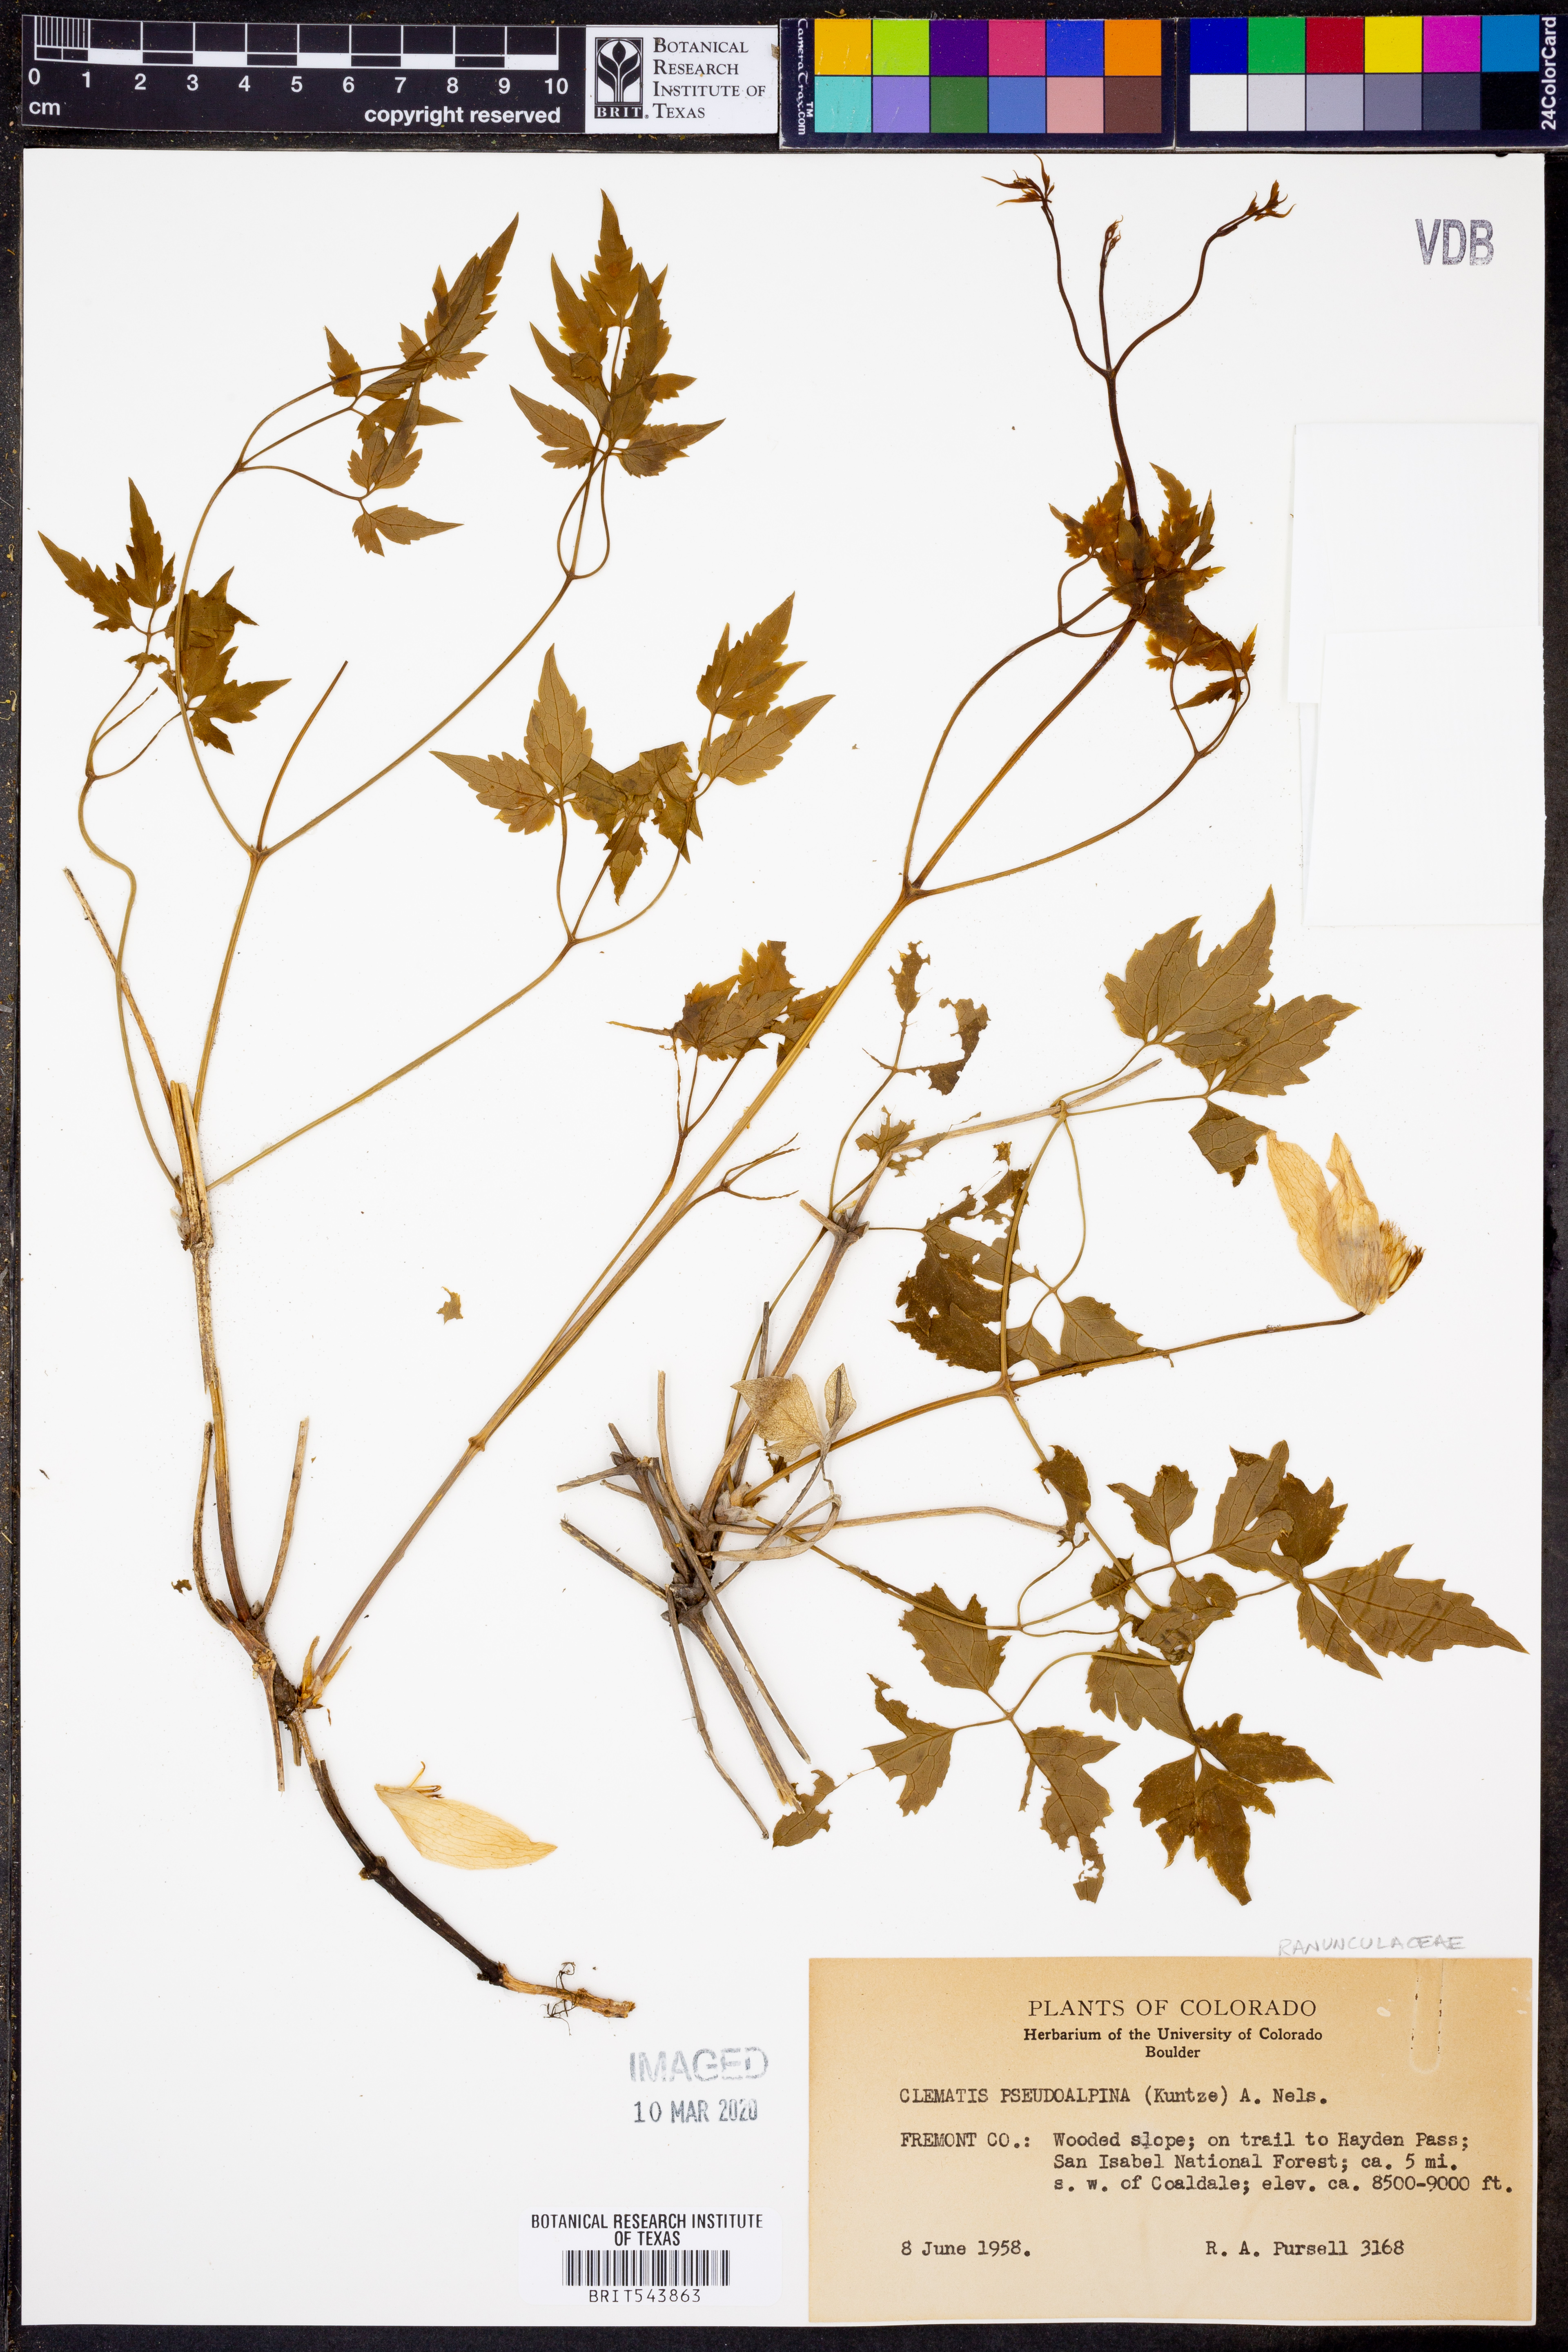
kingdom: Plantae
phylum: Tracheophyta
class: Magnoliopsida
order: Ranunculales
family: Ranunculaceae
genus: Clematis
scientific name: Clematis columbiana
